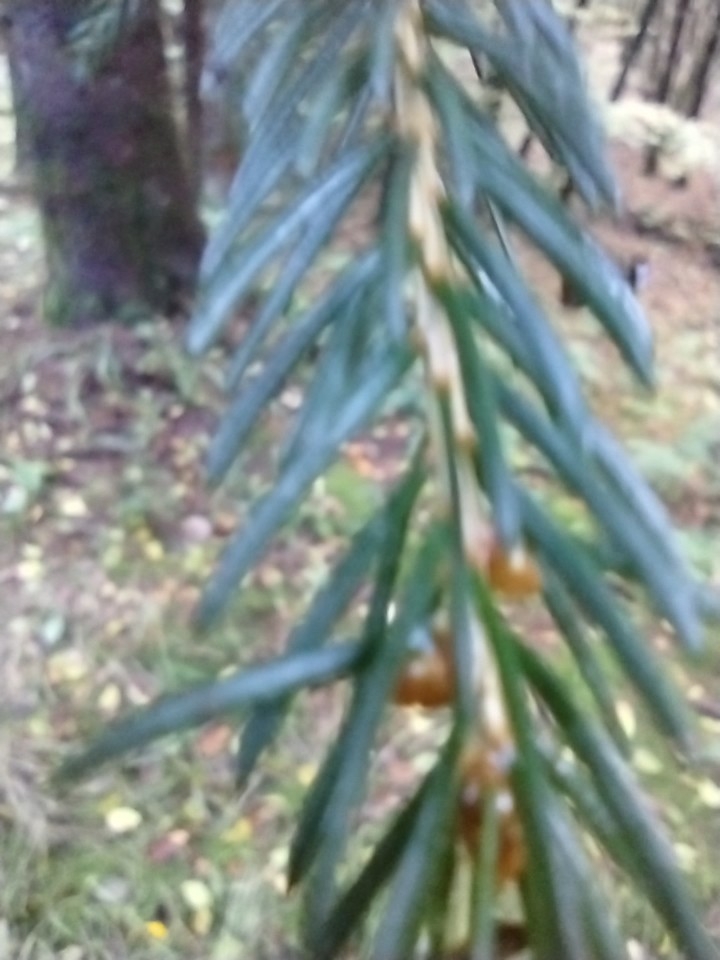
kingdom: Plantae
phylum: Tracheophyta
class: Pinopsida
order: Pinales
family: Pinaceae
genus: Picea
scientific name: Picea abies
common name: Rød-gran
